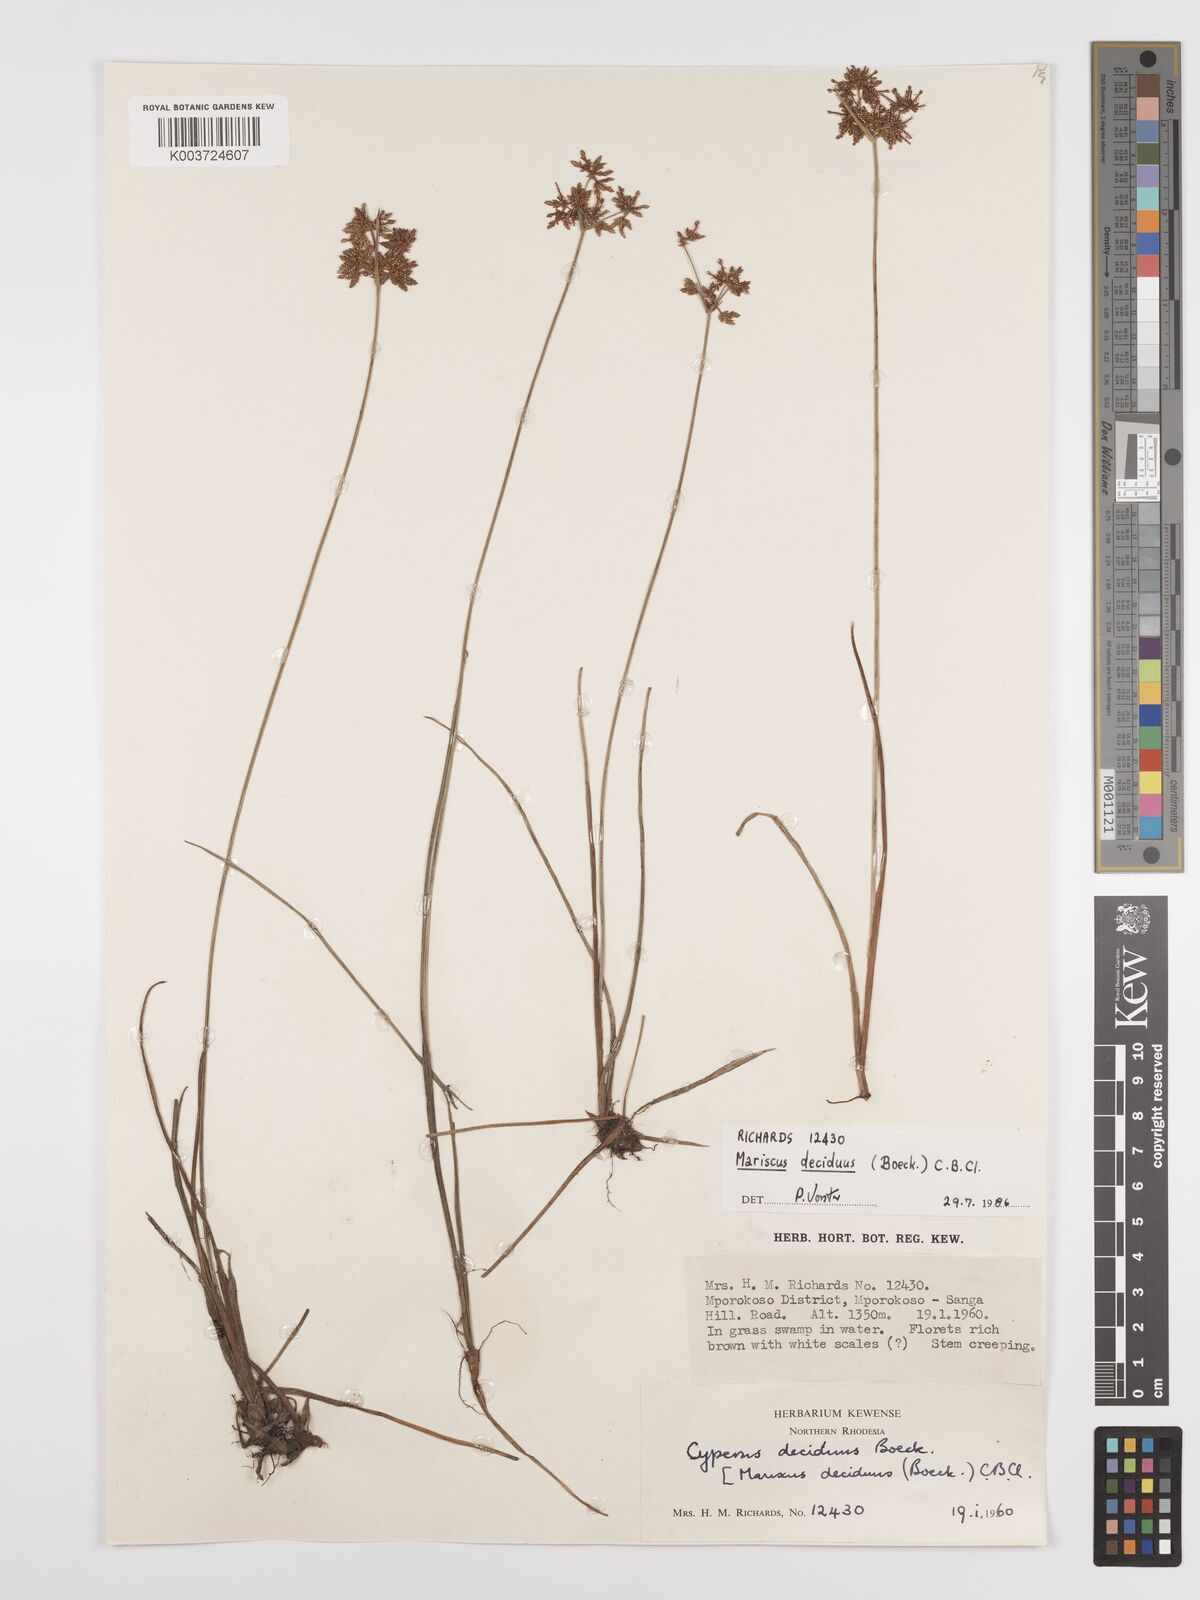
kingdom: Plantae
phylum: Tracheophyta
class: Liliopsida
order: Poales
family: Cyperaceae
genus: Cyperus
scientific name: Cyperus deciduus
